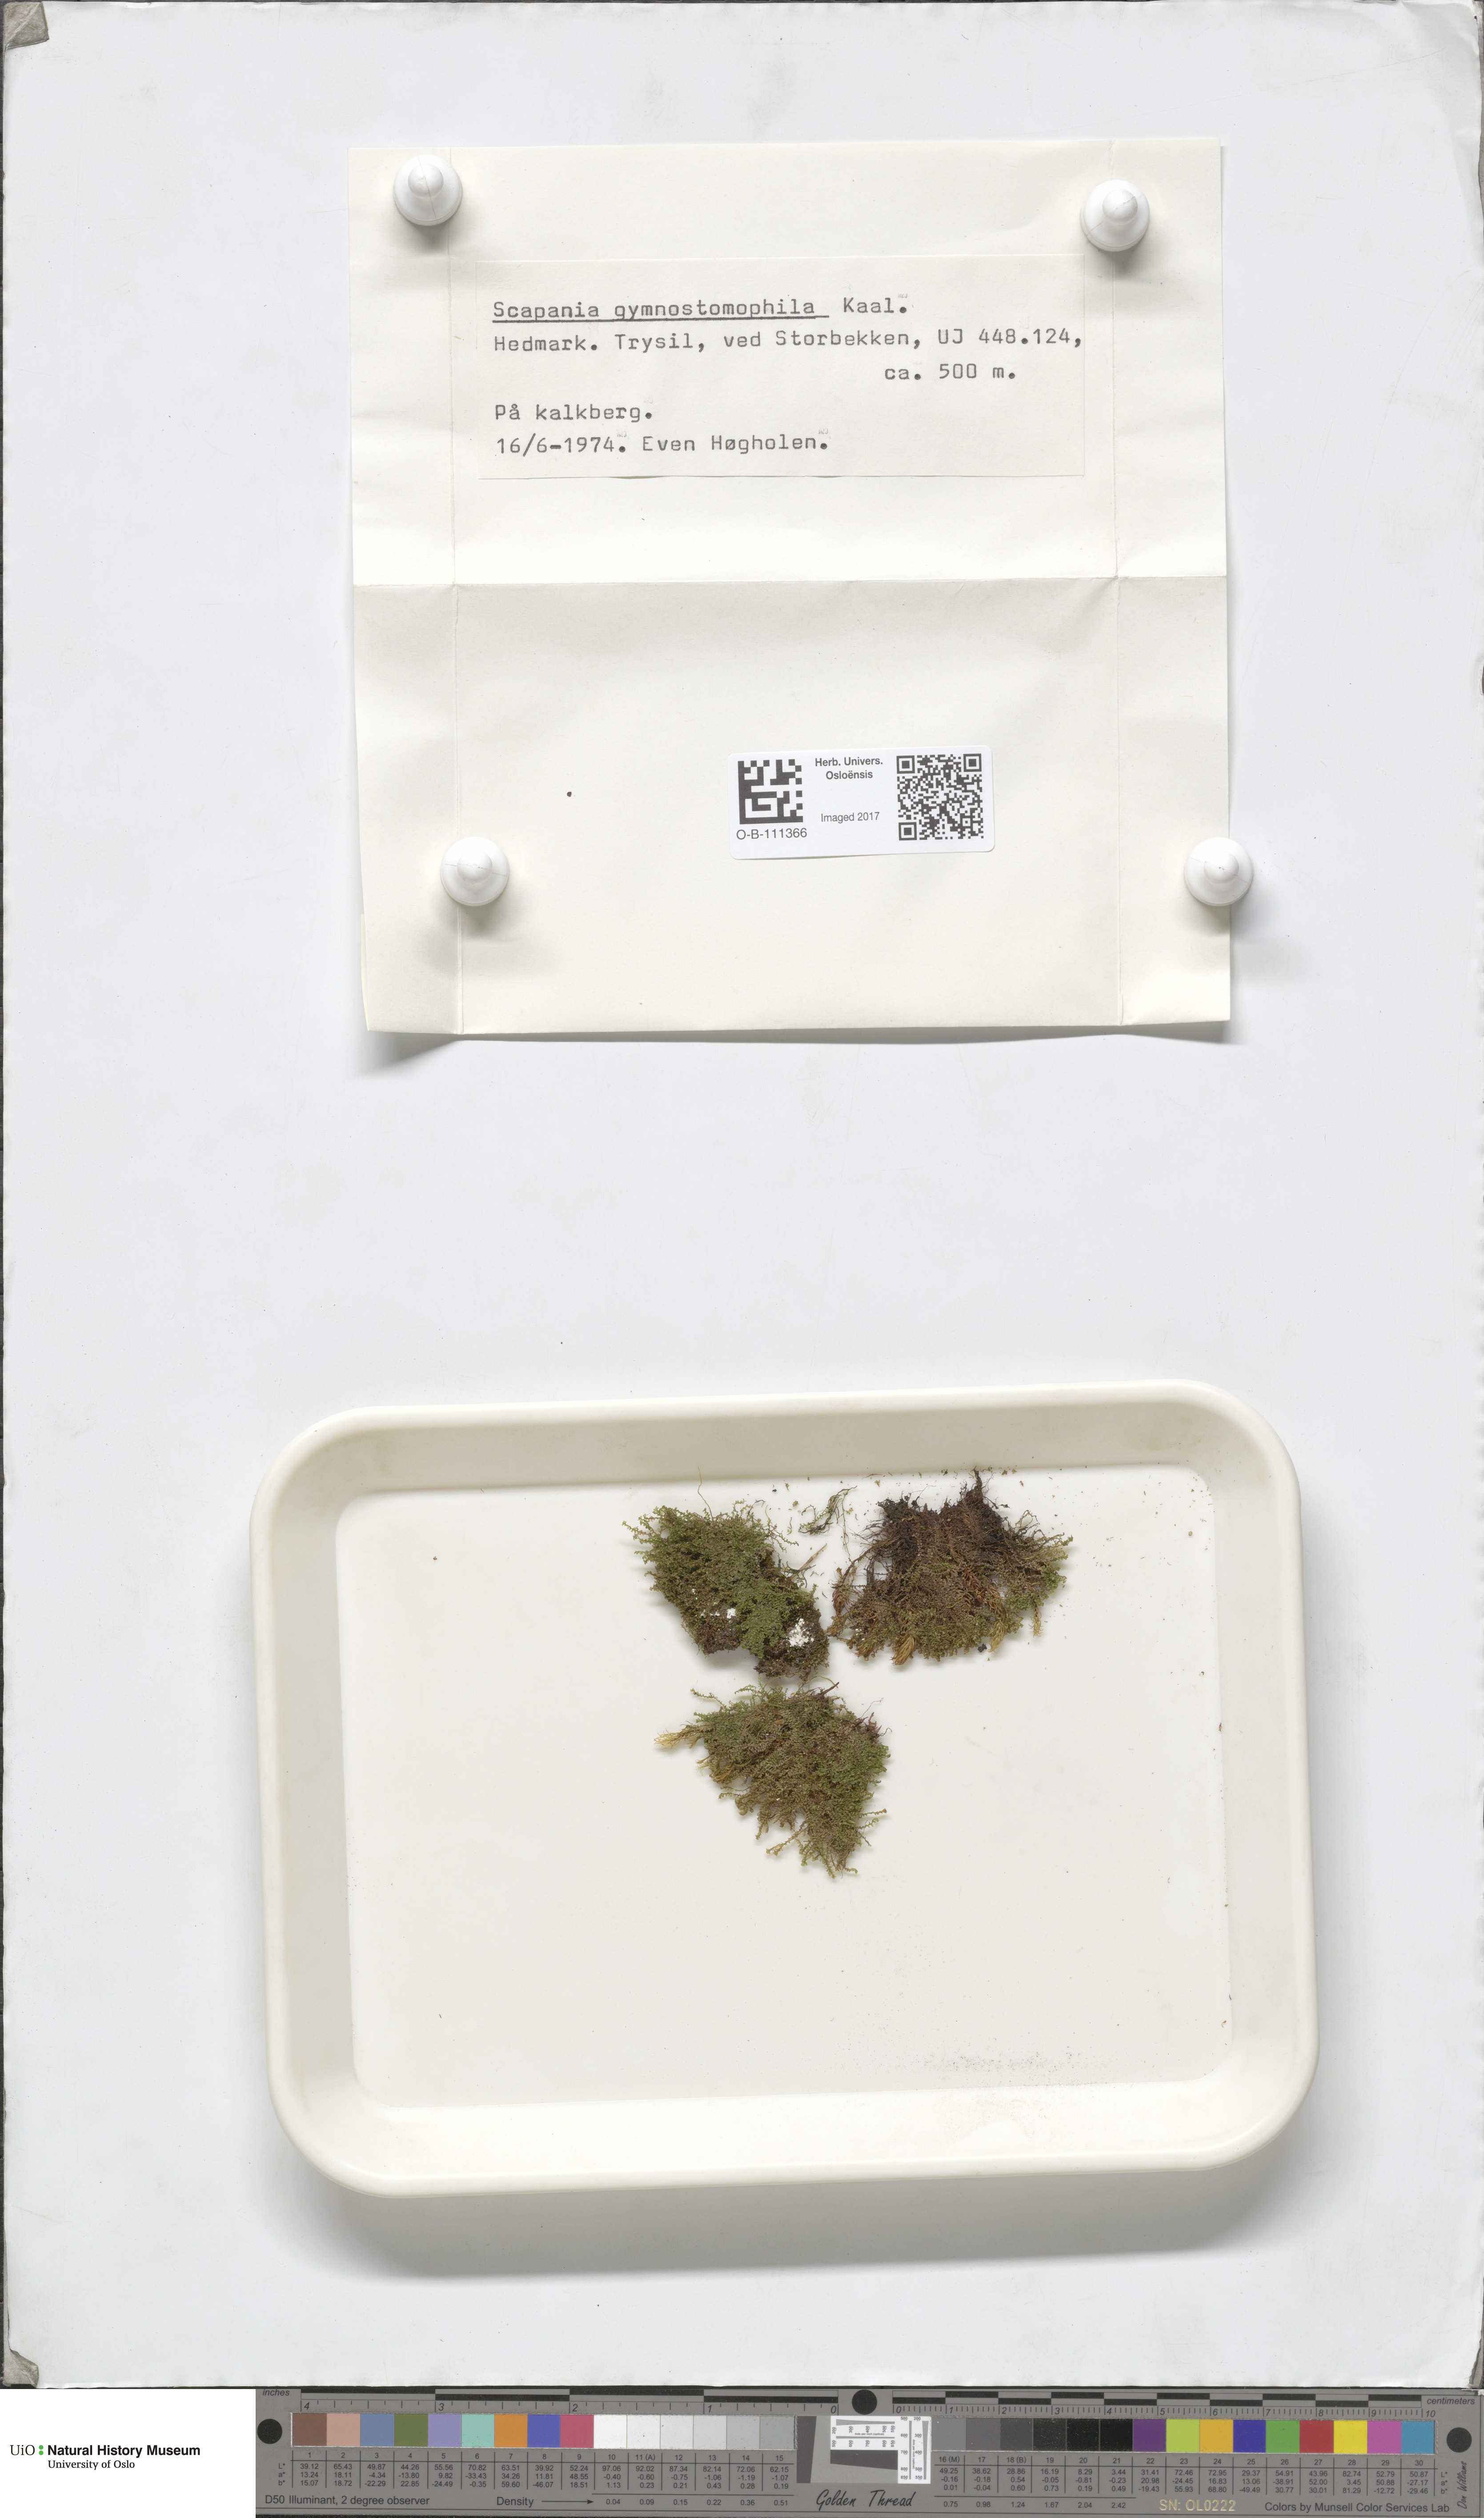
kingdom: Plantae
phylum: Marchantiophyta
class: Jungermanniopsida
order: Jungermanniales
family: Scapaniaceae
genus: Scapania
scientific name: Scapania gymnostomophila
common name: Narrow-lobed earwort
